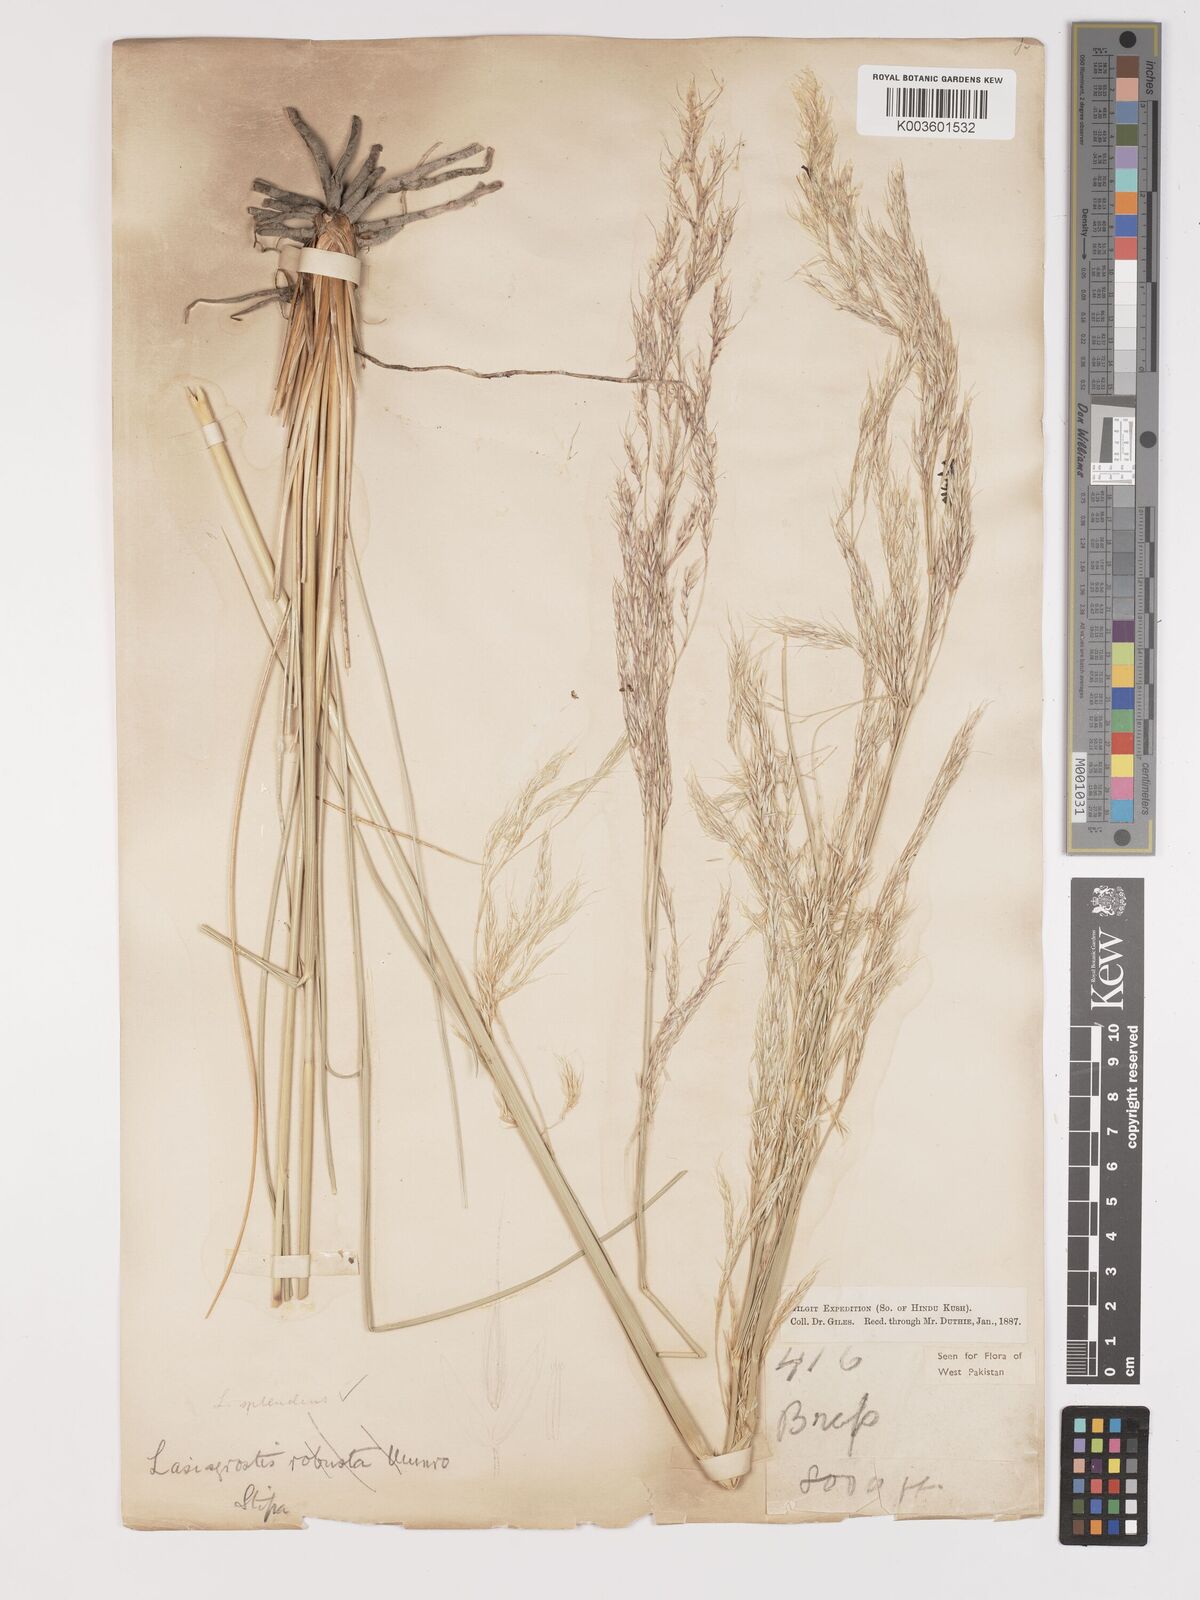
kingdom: Plantae
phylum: Tracheophyta
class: Liliopsida
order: Poales
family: Poaceae
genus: Neotrinia
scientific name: Neotrinia splendens
